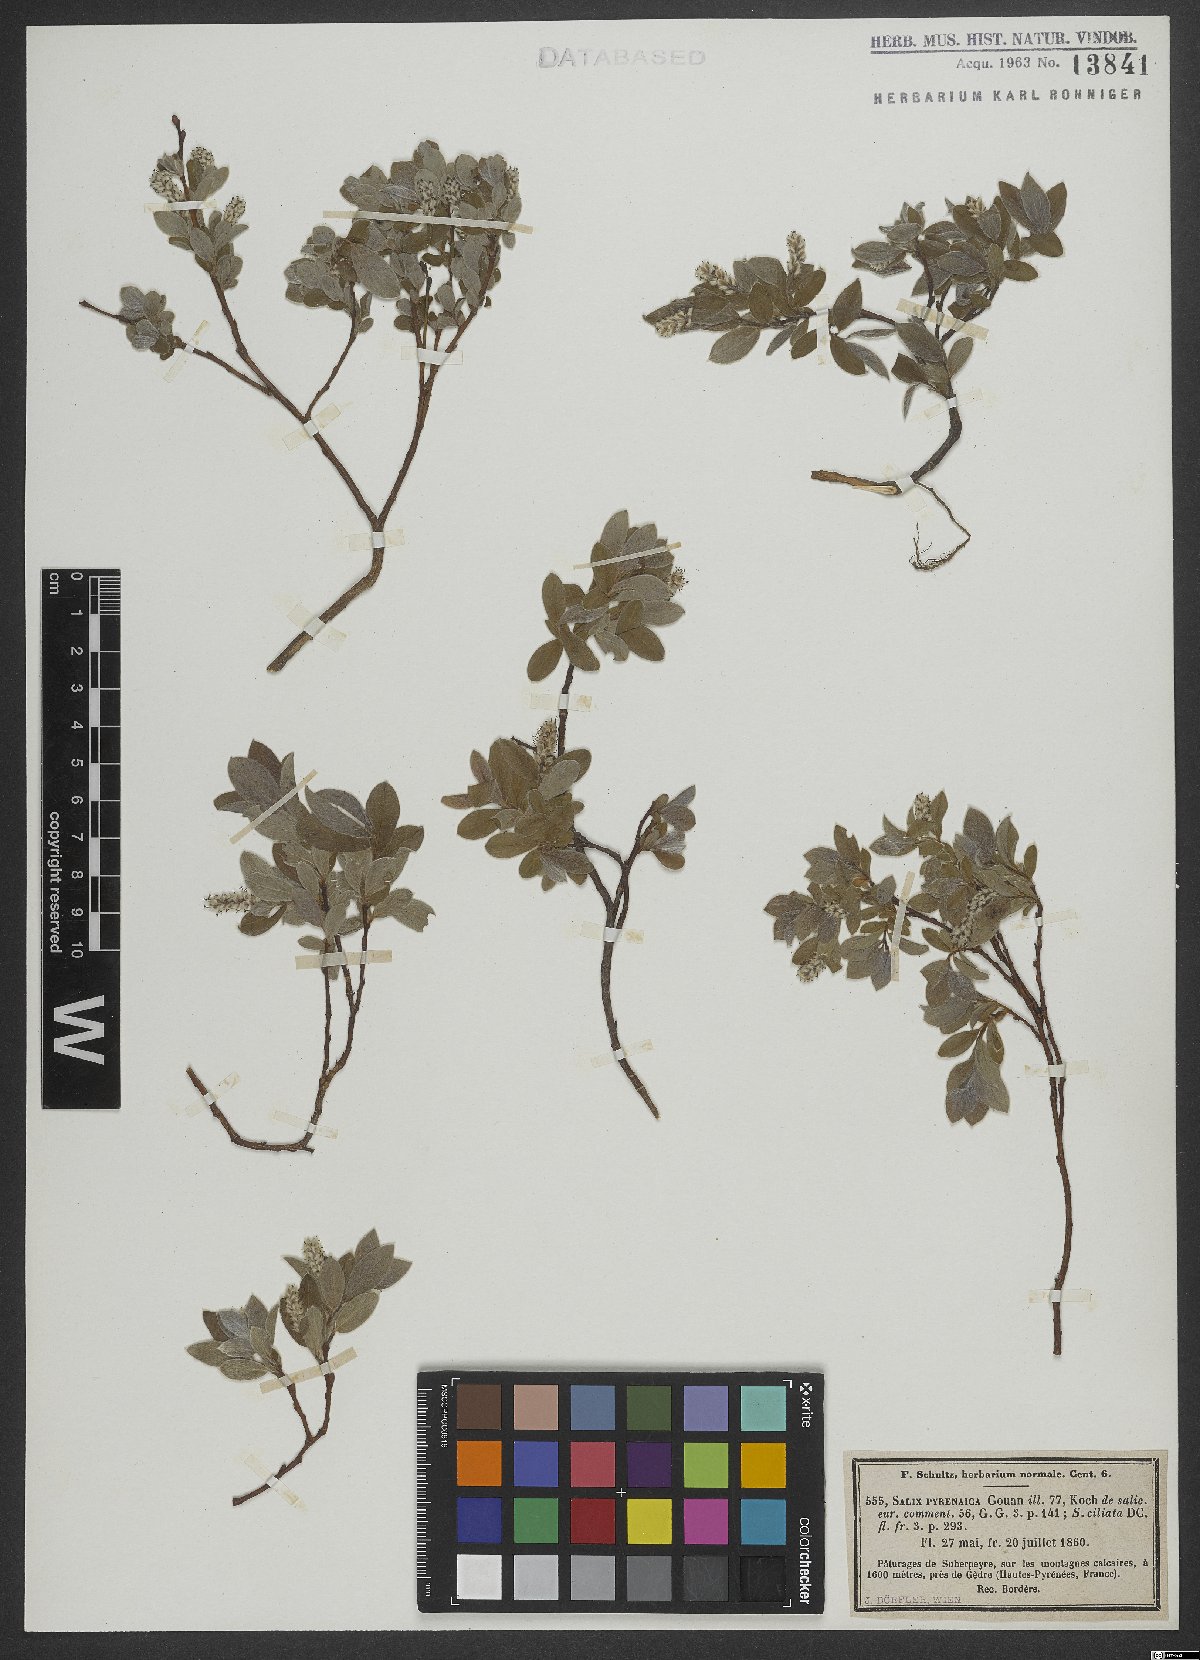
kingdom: Plantae
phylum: Tracheophyta
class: Magnoliopsida
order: Malpighiales
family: Salicaceae
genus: Salix
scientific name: Salix pyrenaica
